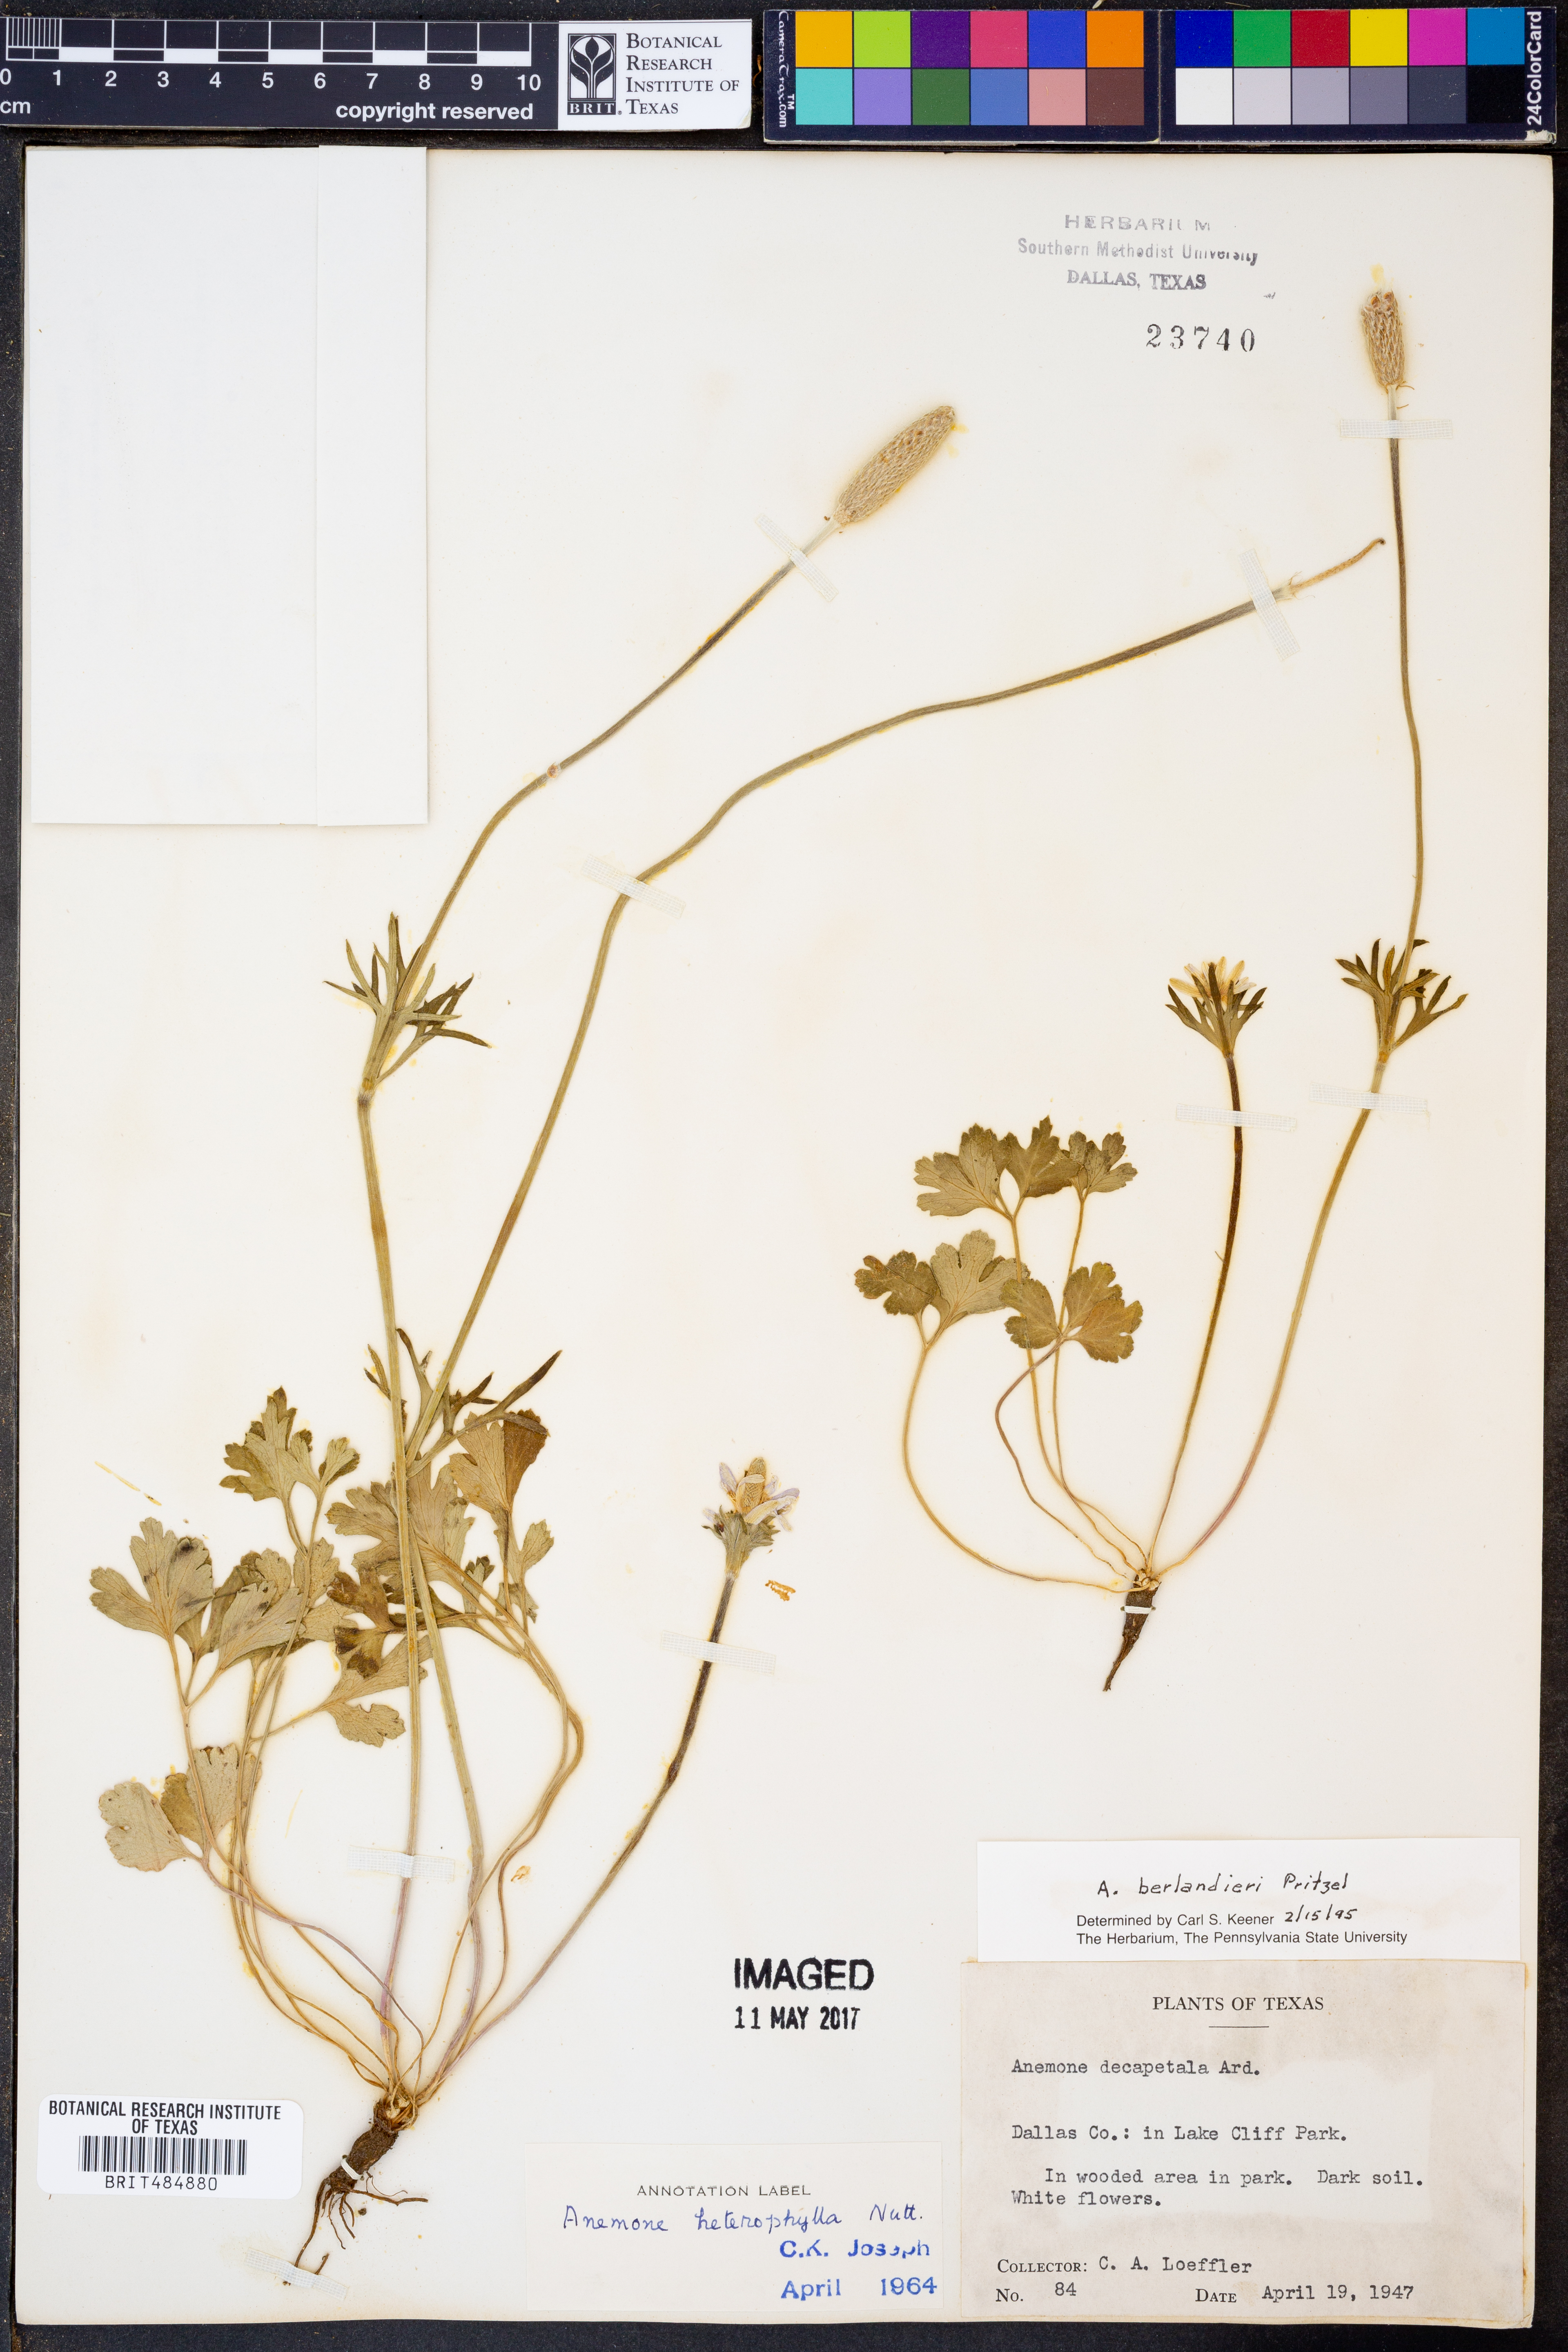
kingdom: Plantae
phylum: Tracheophyta
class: Magnoliopsida
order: Ranunculales
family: Ranunculaceae
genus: Anemone
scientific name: Anemone berlandieri
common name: Ten-petal anemone
